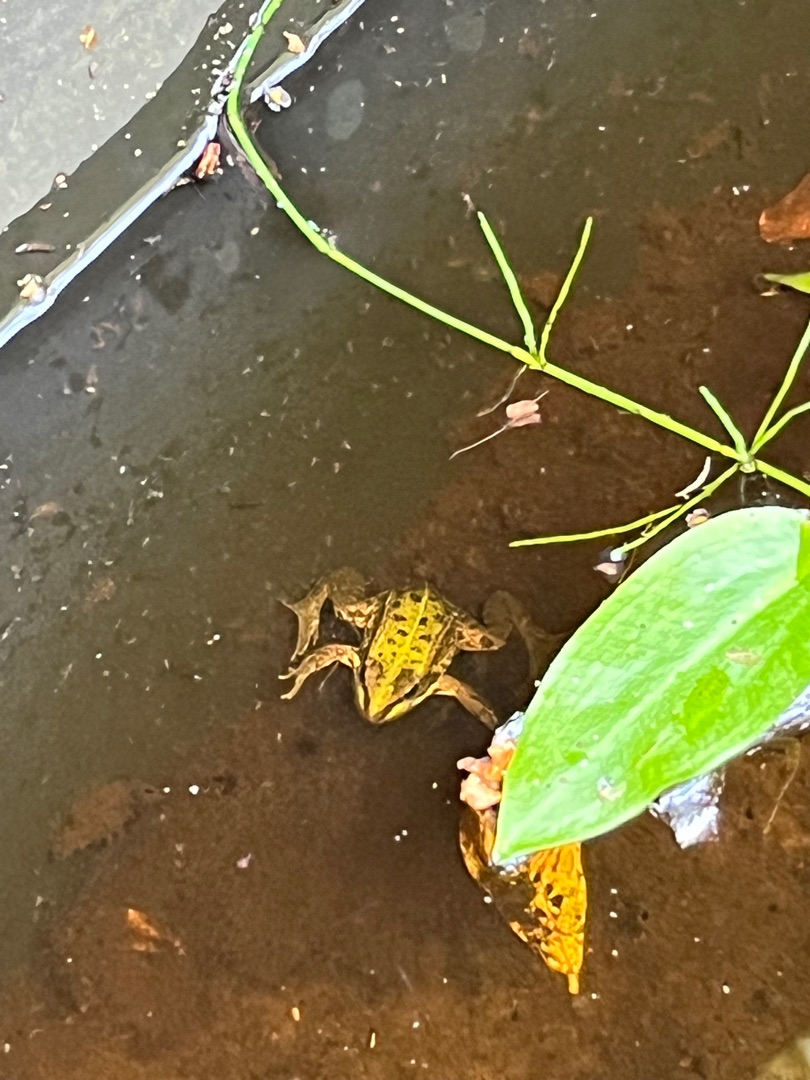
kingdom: Animalia
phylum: Chordata
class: Amphibia
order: Anura
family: Ranidae
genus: Pelophylax
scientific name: Pelophylax lessonae
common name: Grøn frø
